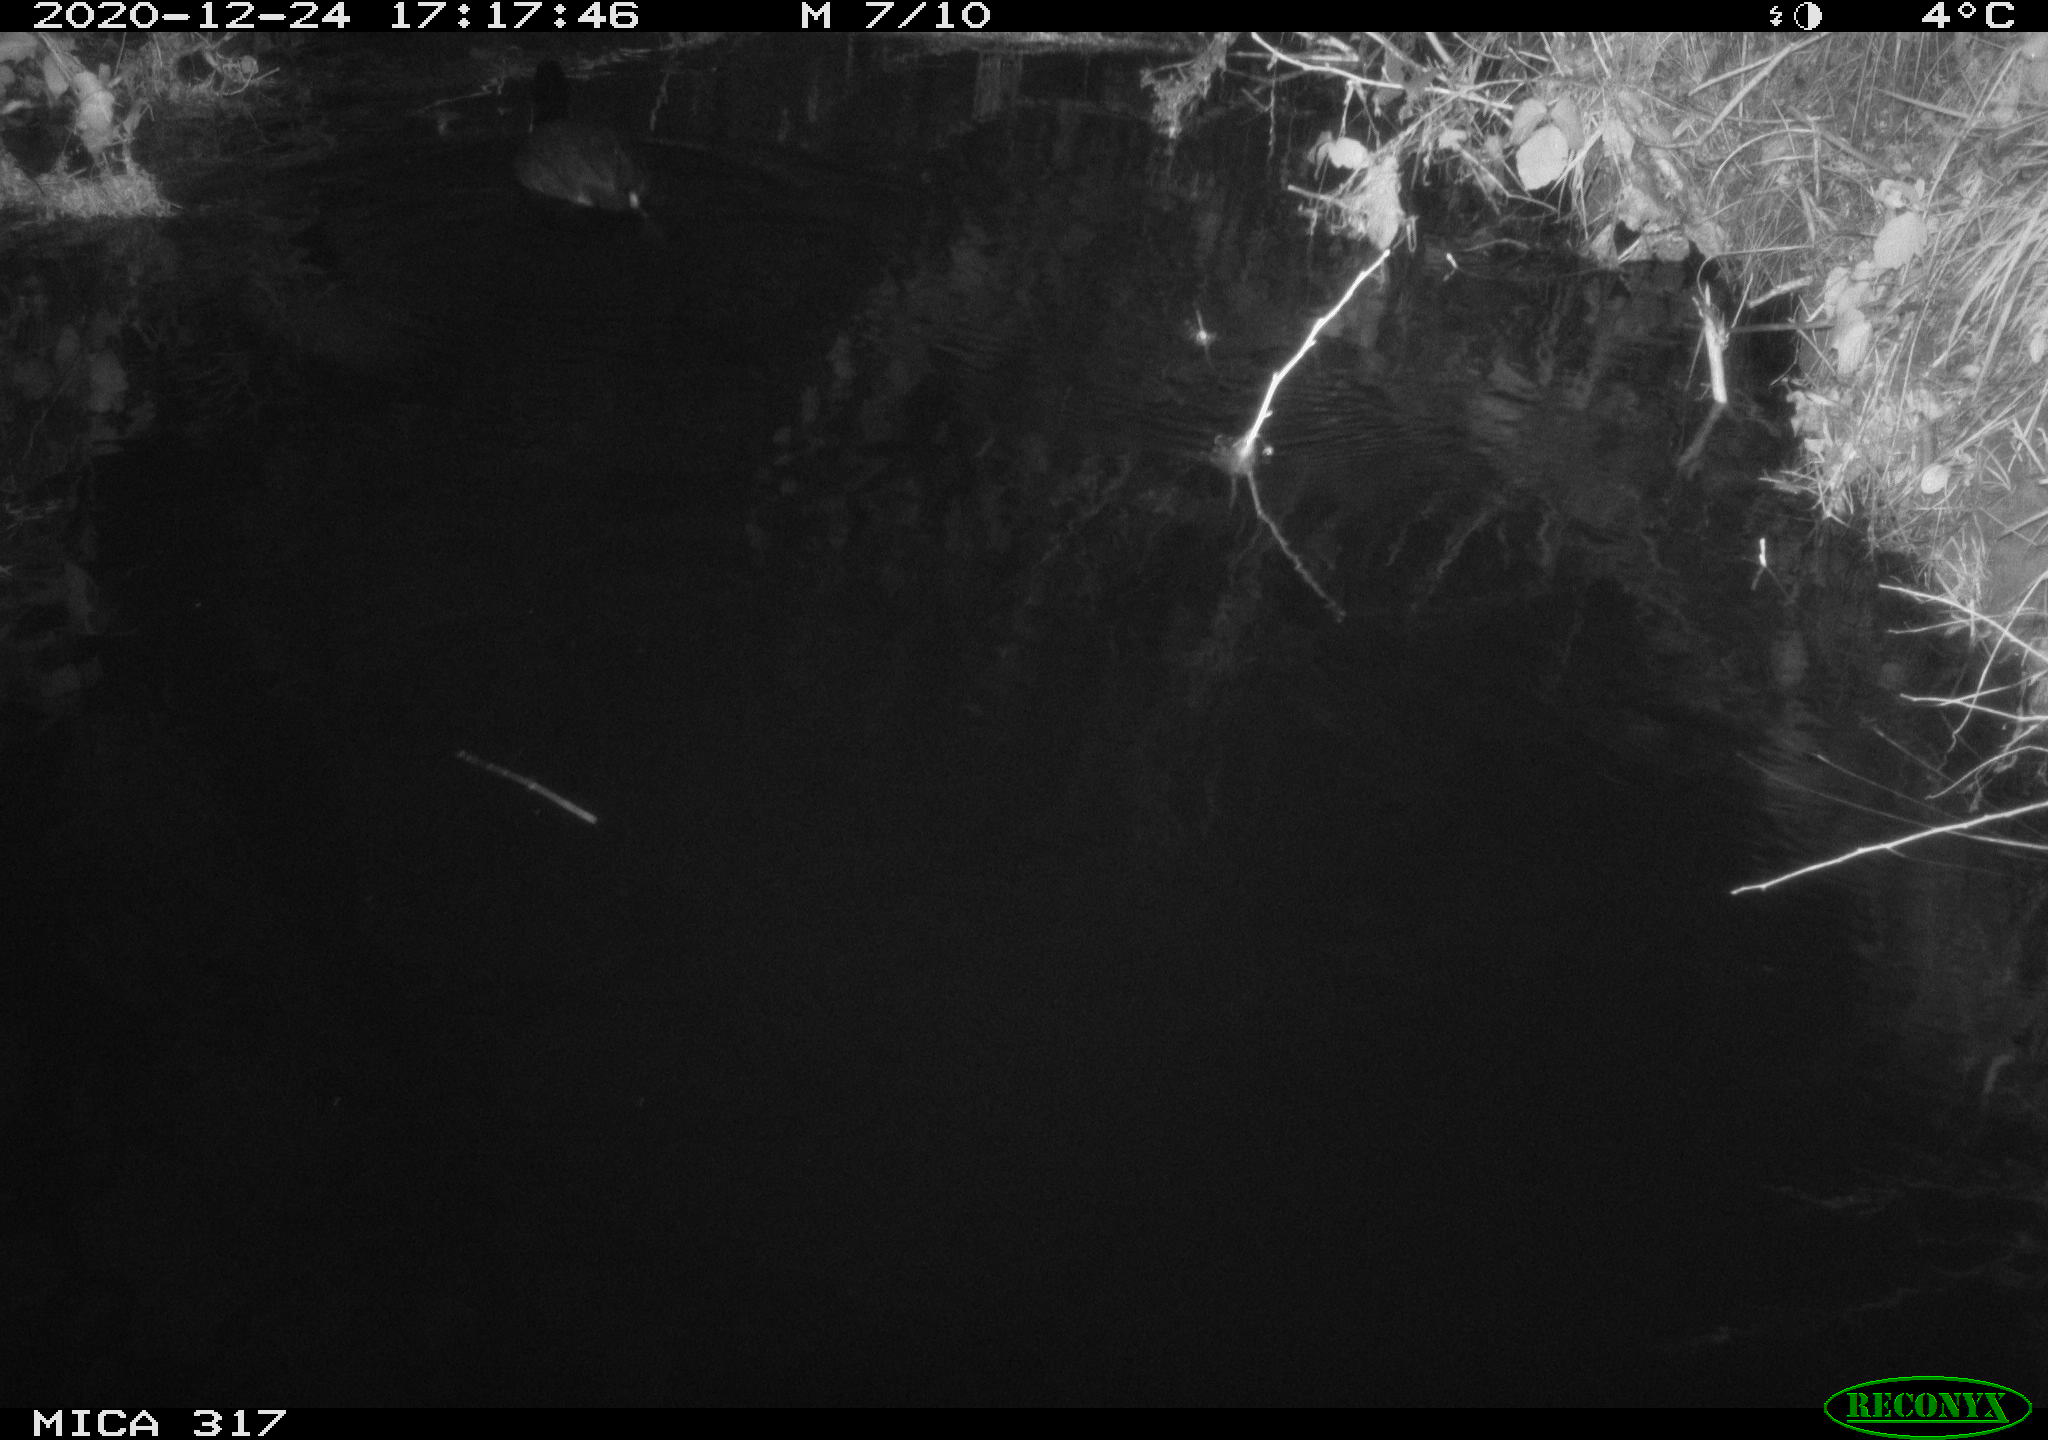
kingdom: Animalia
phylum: Chordata
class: Aves
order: Gruiformes
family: Rallidae
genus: Fulica
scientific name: Fulica atra
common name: Eurasian coot
